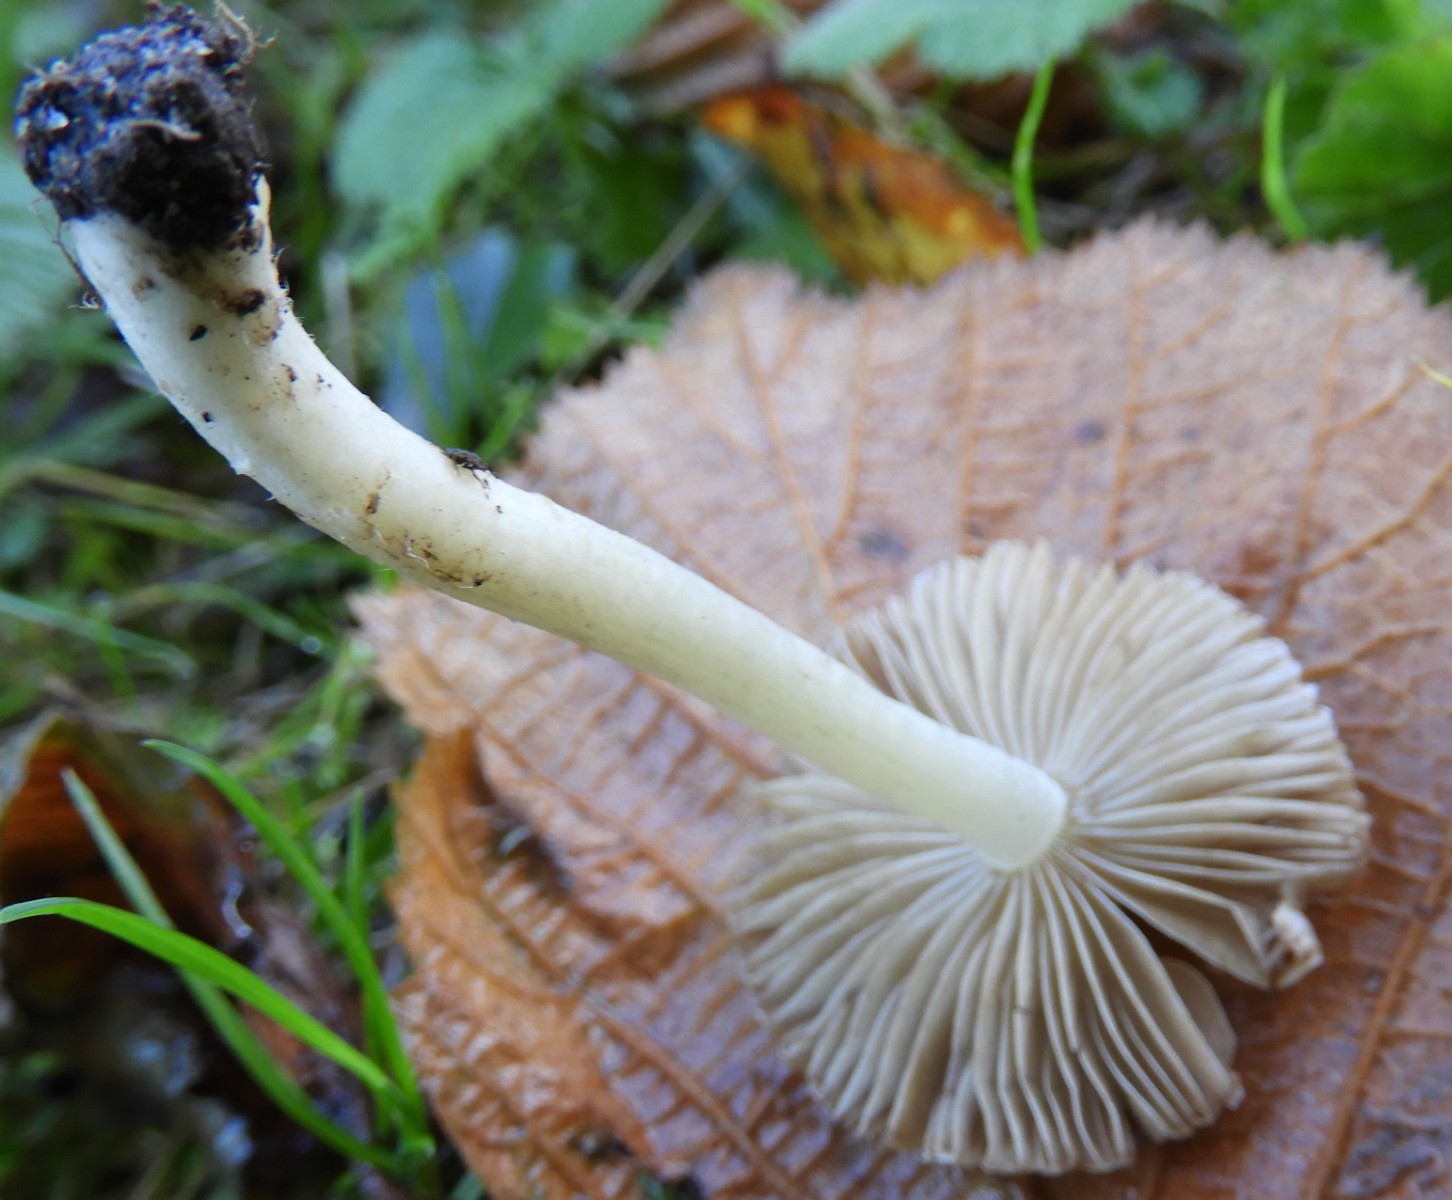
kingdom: Fungi
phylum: Basidiomycota
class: Agaricomycetes
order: Agaricales
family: Inocybaceae
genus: Inocybe
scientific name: Inocybe
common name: almindelig trævlhat
